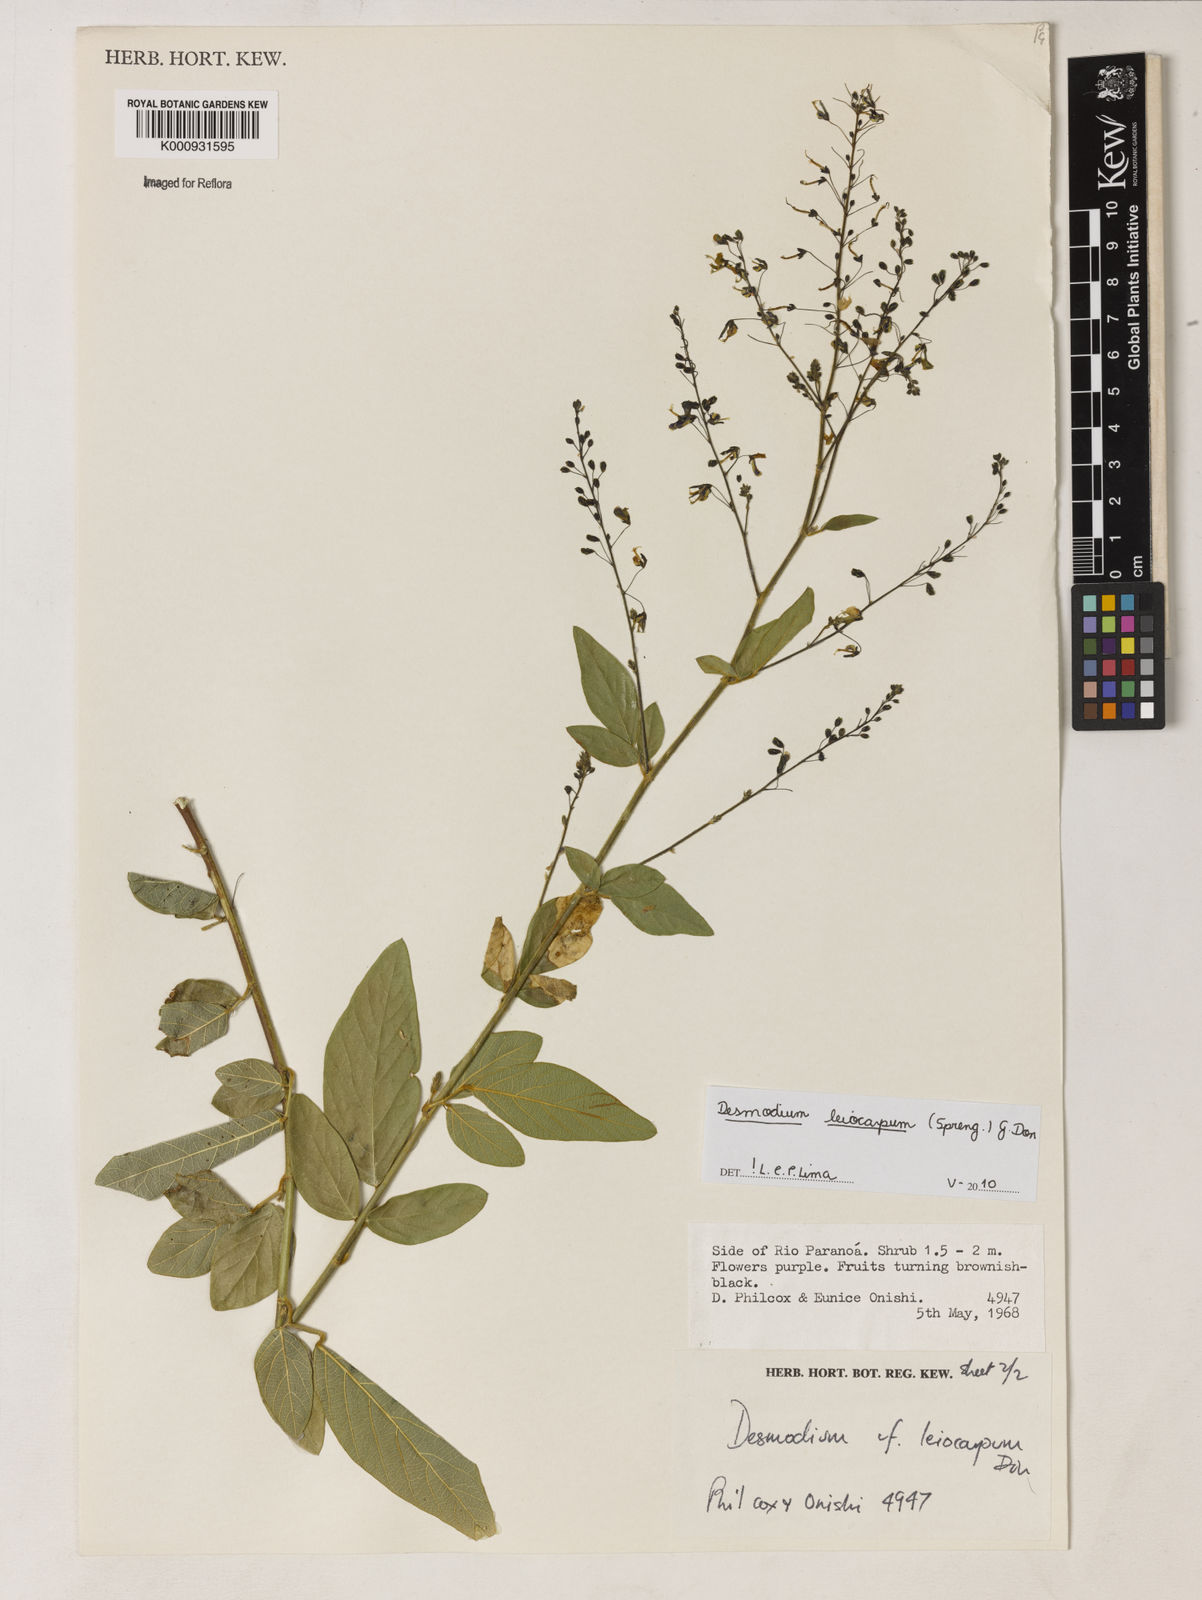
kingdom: Plantae
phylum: Tracheophyta
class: Magnoliopsida
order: Fabales
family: Fabaceae
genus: Desmodium
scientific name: Desmodium leiocarpum
